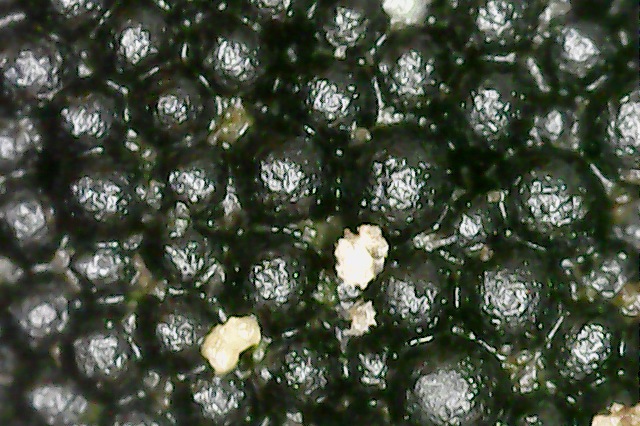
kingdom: Fungi
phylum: Ascomycota
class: Sordariomycetes
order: Sordariales
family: Helminthosphaeriaceae
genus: Ruzenia
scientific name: Ruzenia spermoides
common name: glat børstekerne
